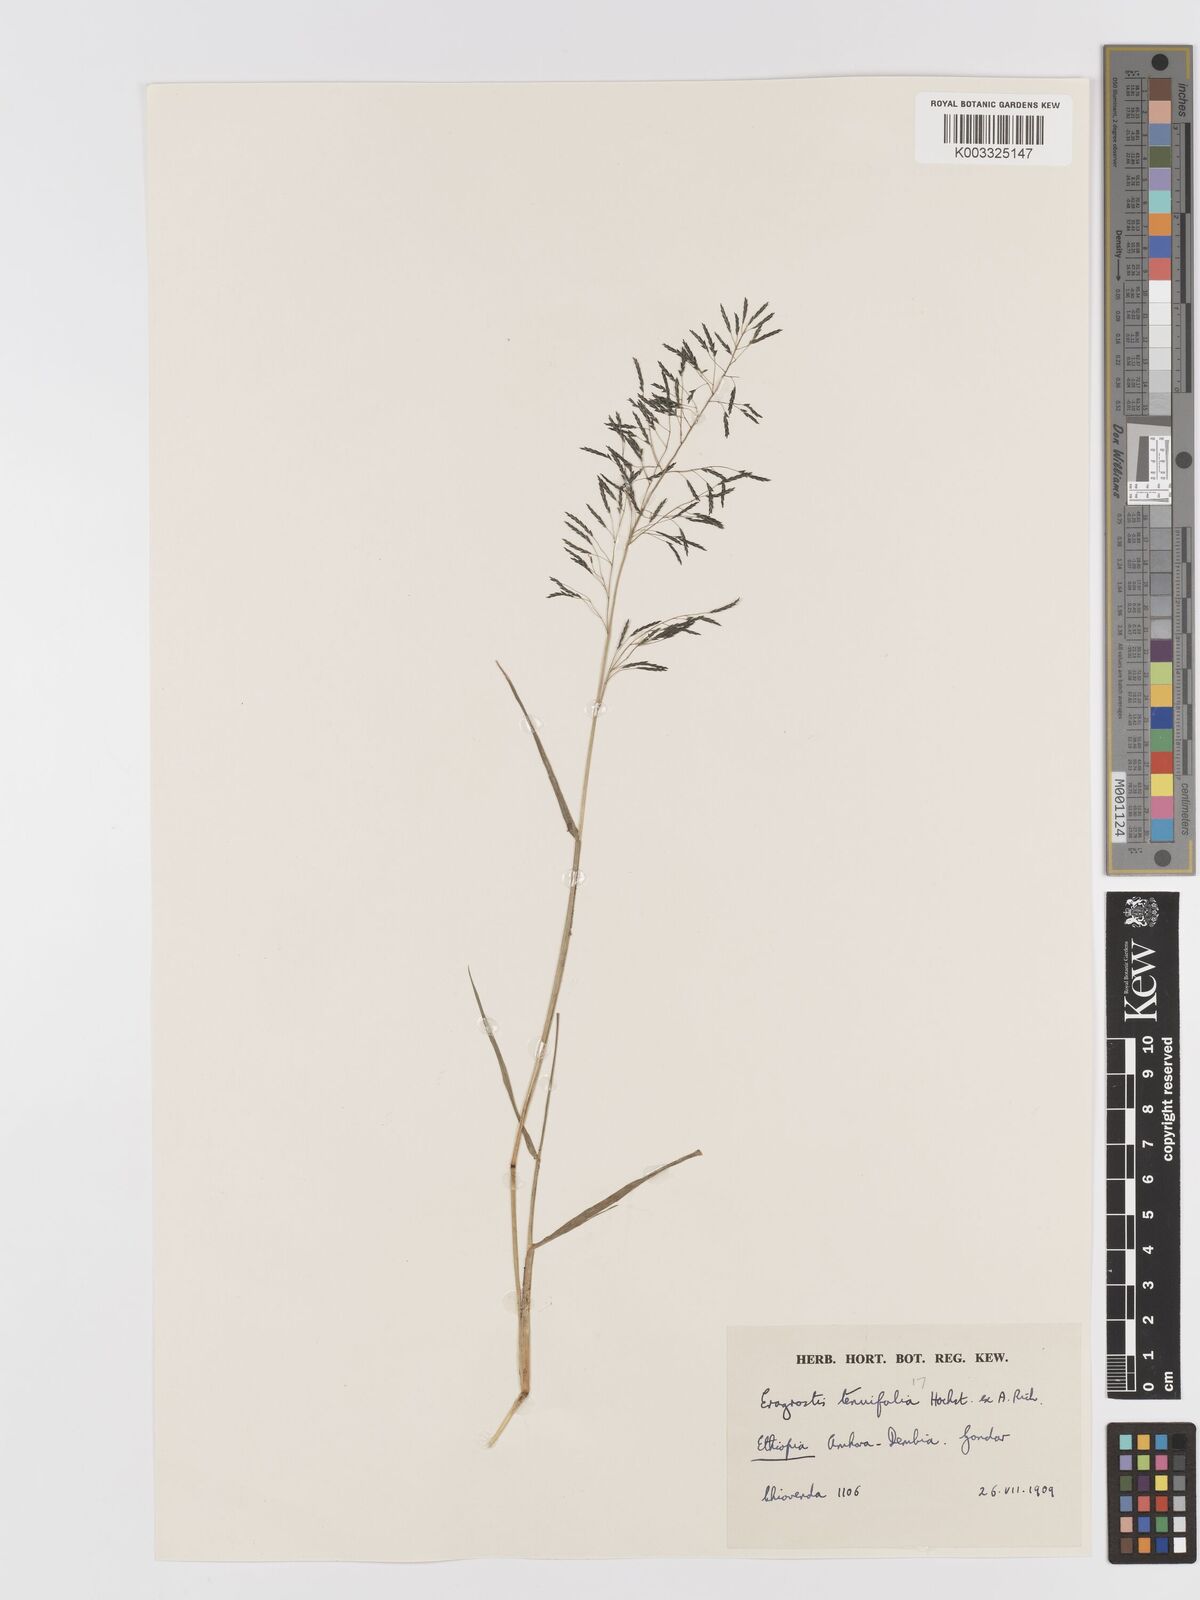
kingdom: Plantae
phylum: Tracheophyta
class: Liliopsida
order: Poales
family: Poaceae
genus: Eragrostis
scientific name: Eragrostis tenuifolia
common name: Elastic grass
